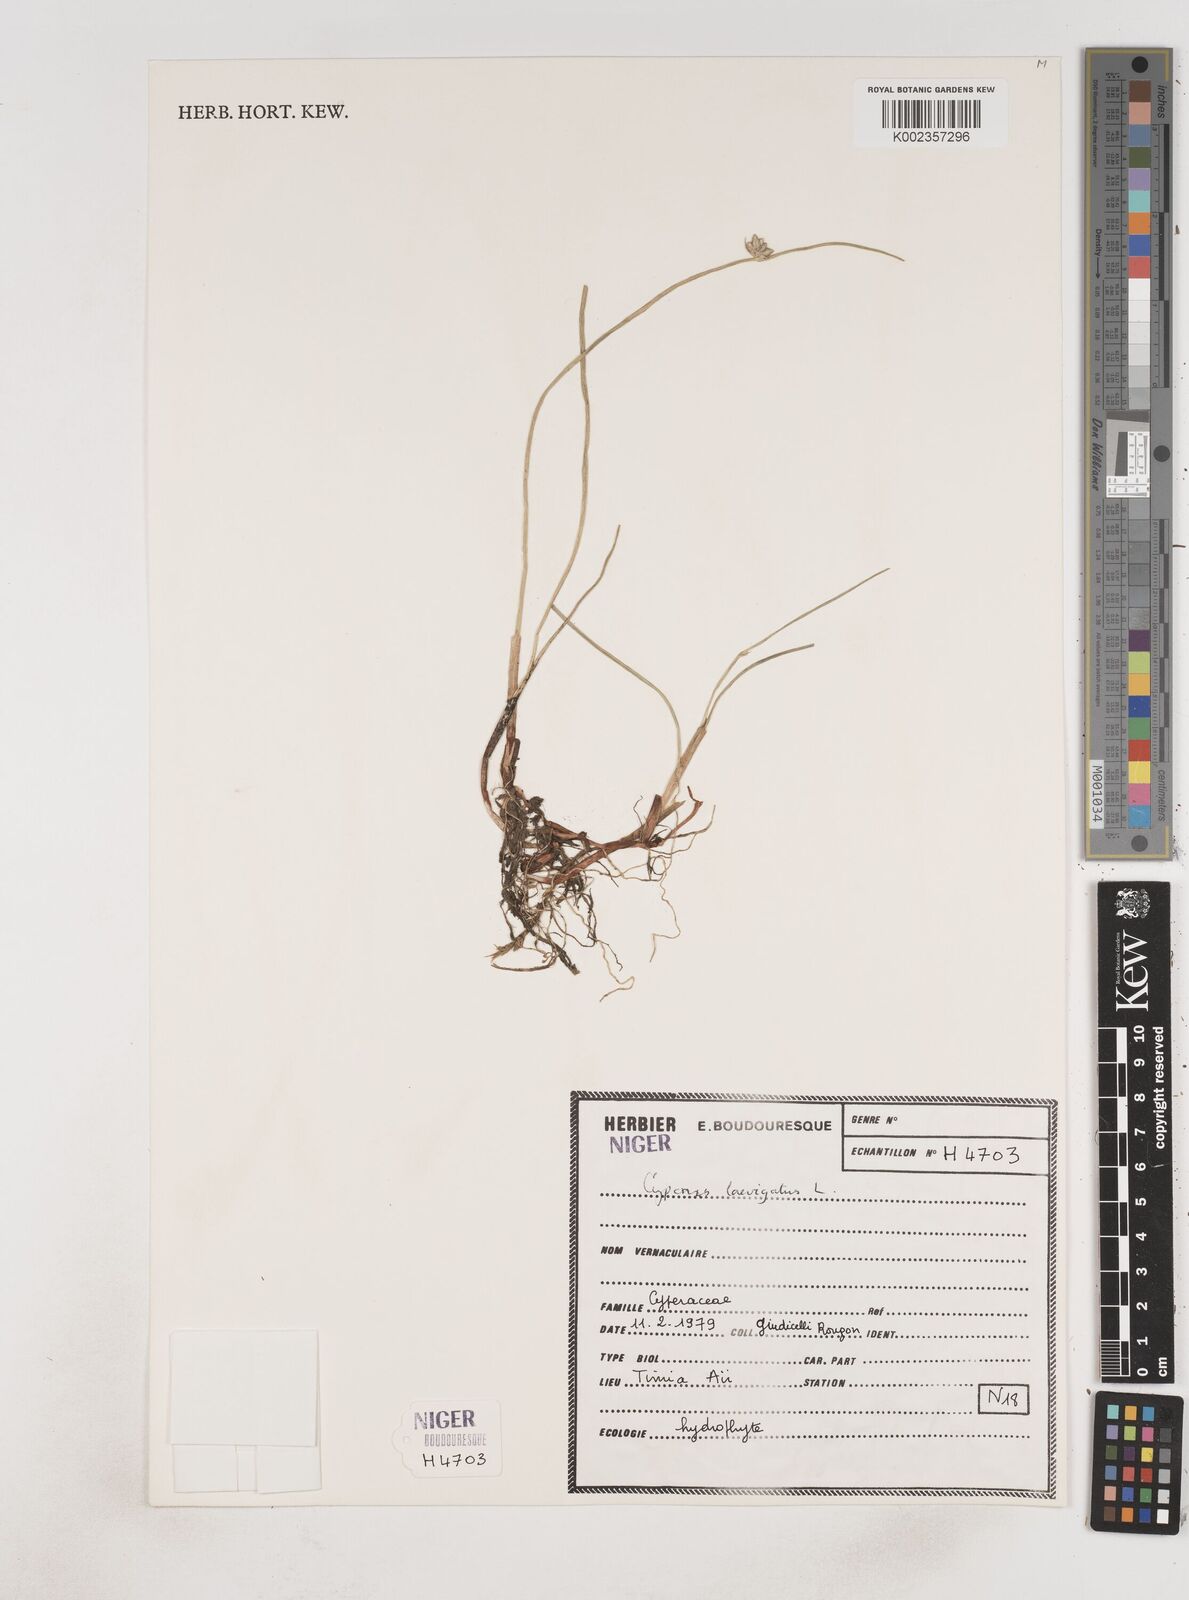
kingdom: Plantae
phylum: Tracheophyta
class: Liliopsida
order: Poales
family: Cyperaceae
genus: Cyperus
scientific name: Cyperus laevigatus
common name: Smooth flat sedge
